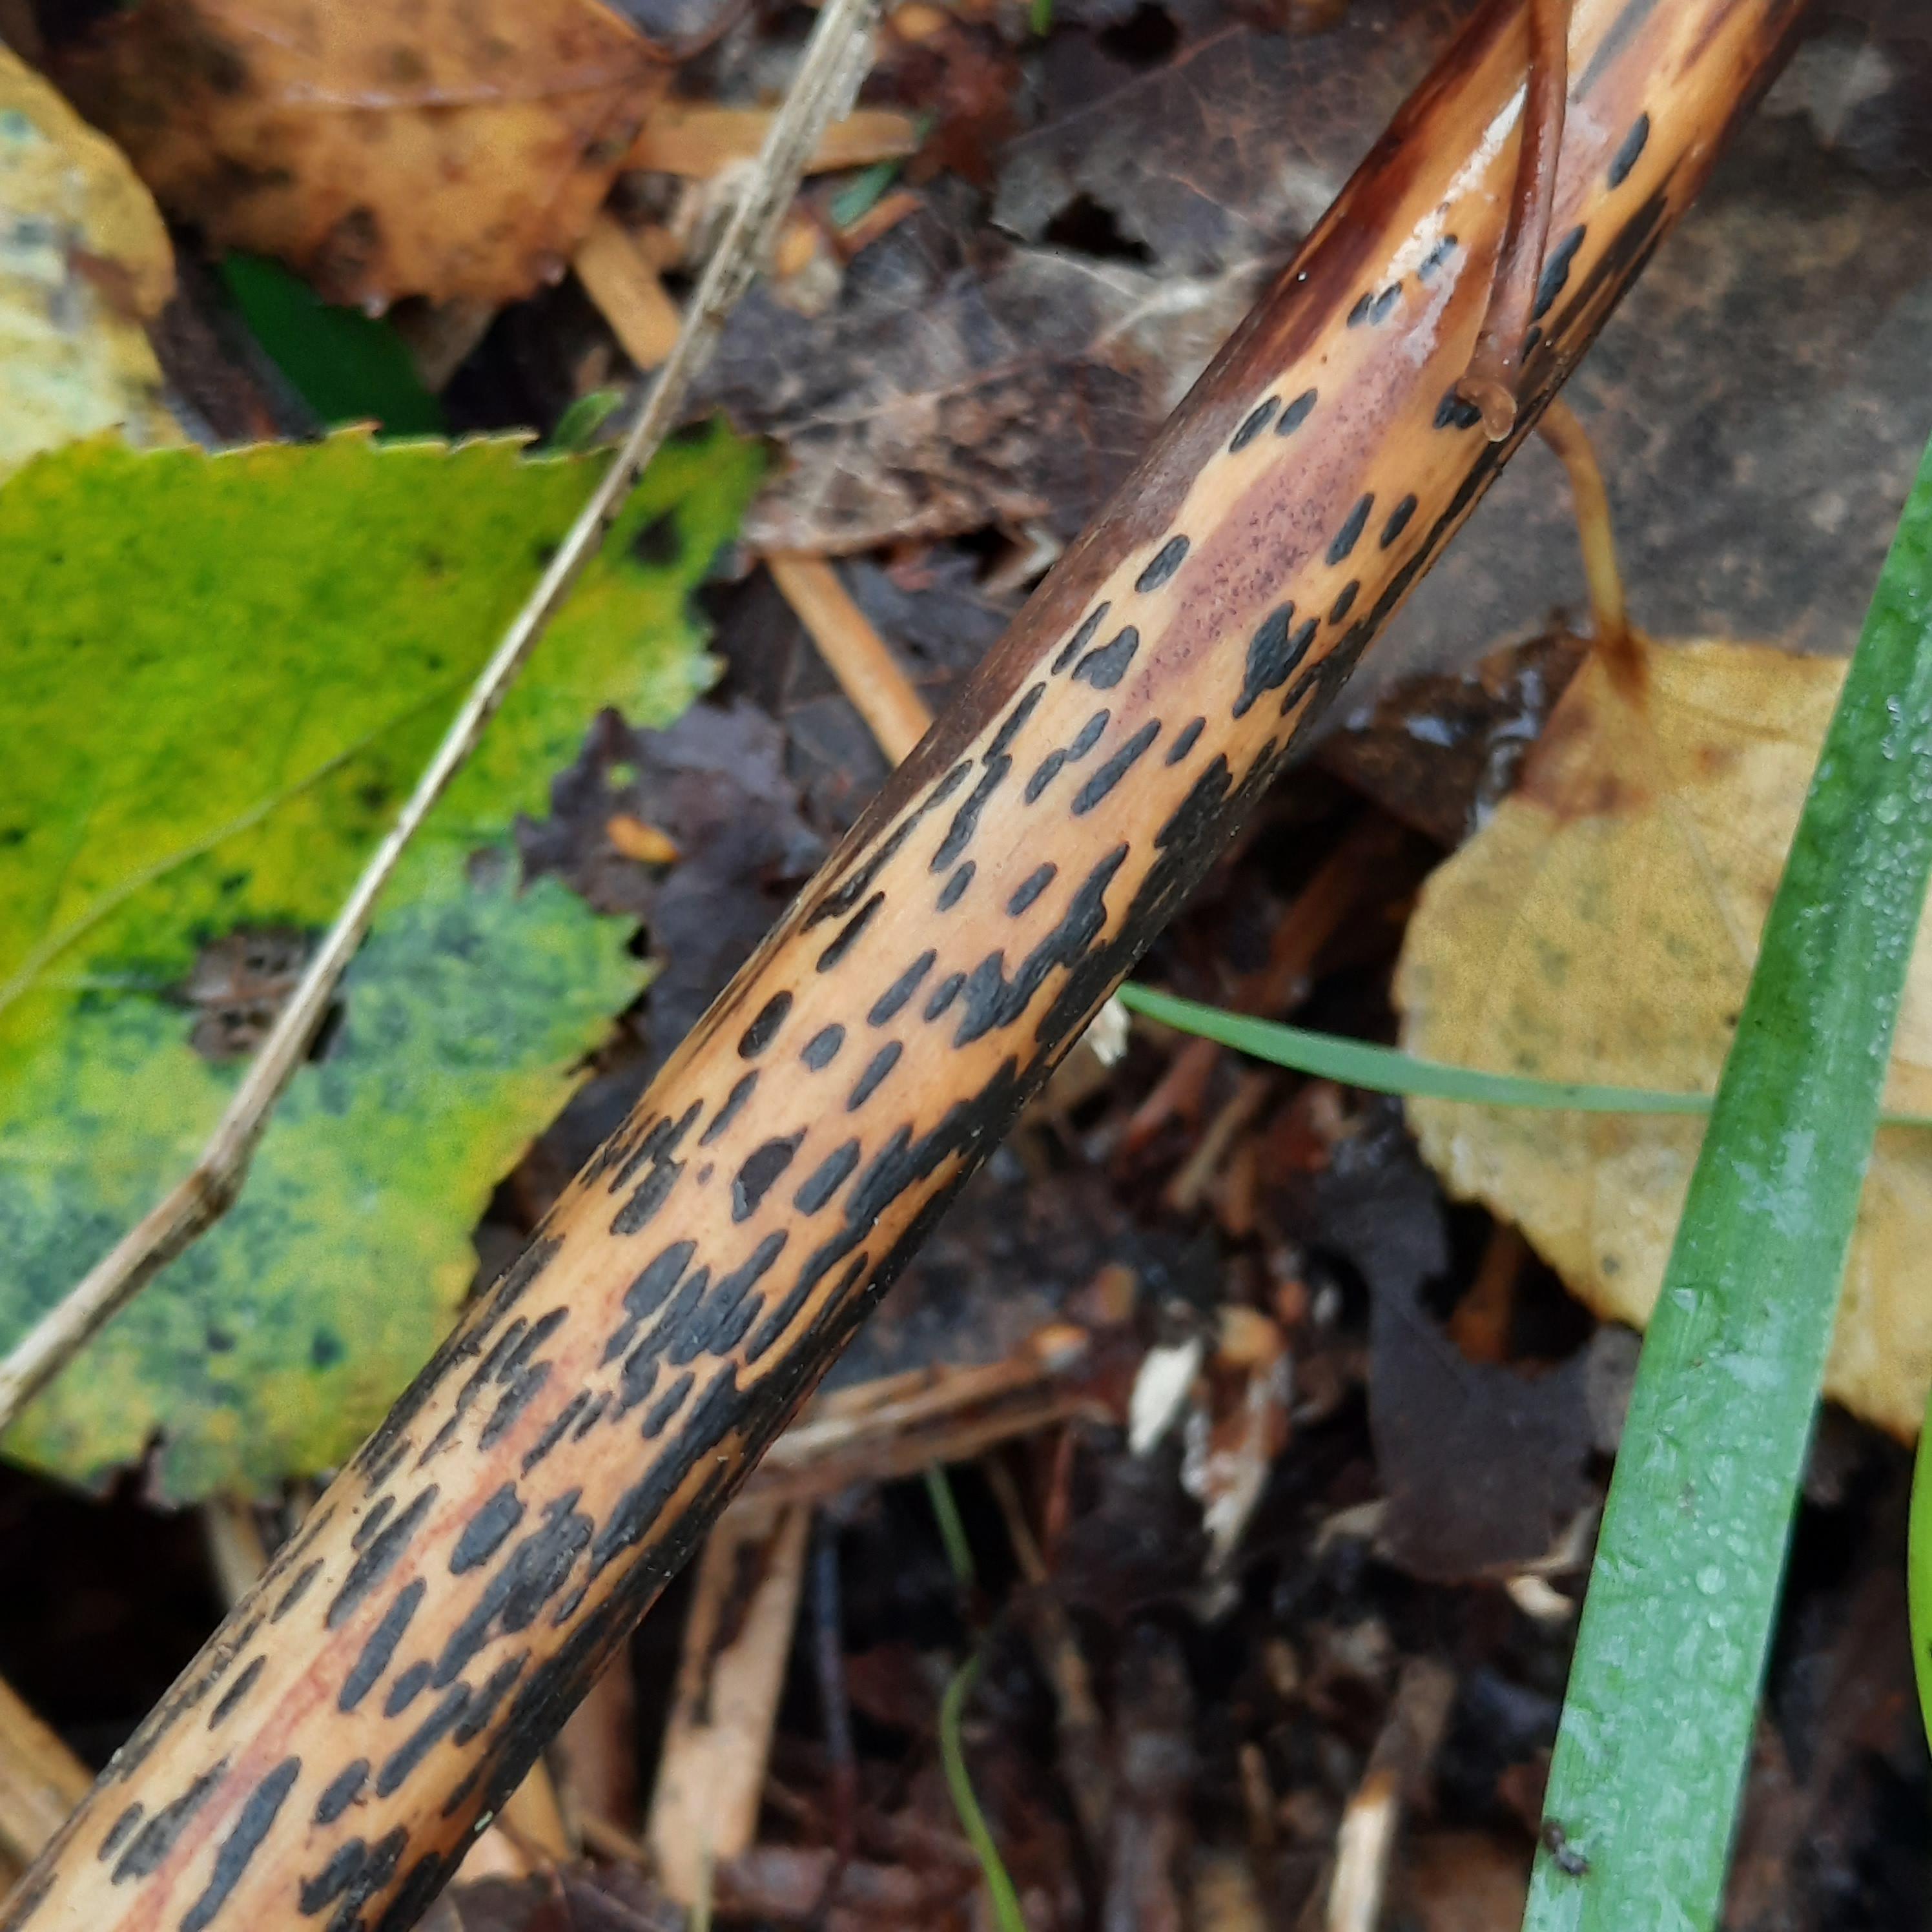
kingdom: Plantae
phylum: Bryophyta
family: Dothideomycetes
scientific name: Dothideomycetes
